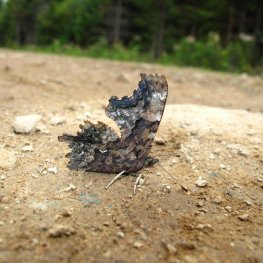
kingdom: Animalia
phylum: Arthropoda
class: Insecta
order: Lepidoptera
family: Nymphalidae
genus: Polygonia
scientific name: Polygonia faunus
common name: Green Comma
